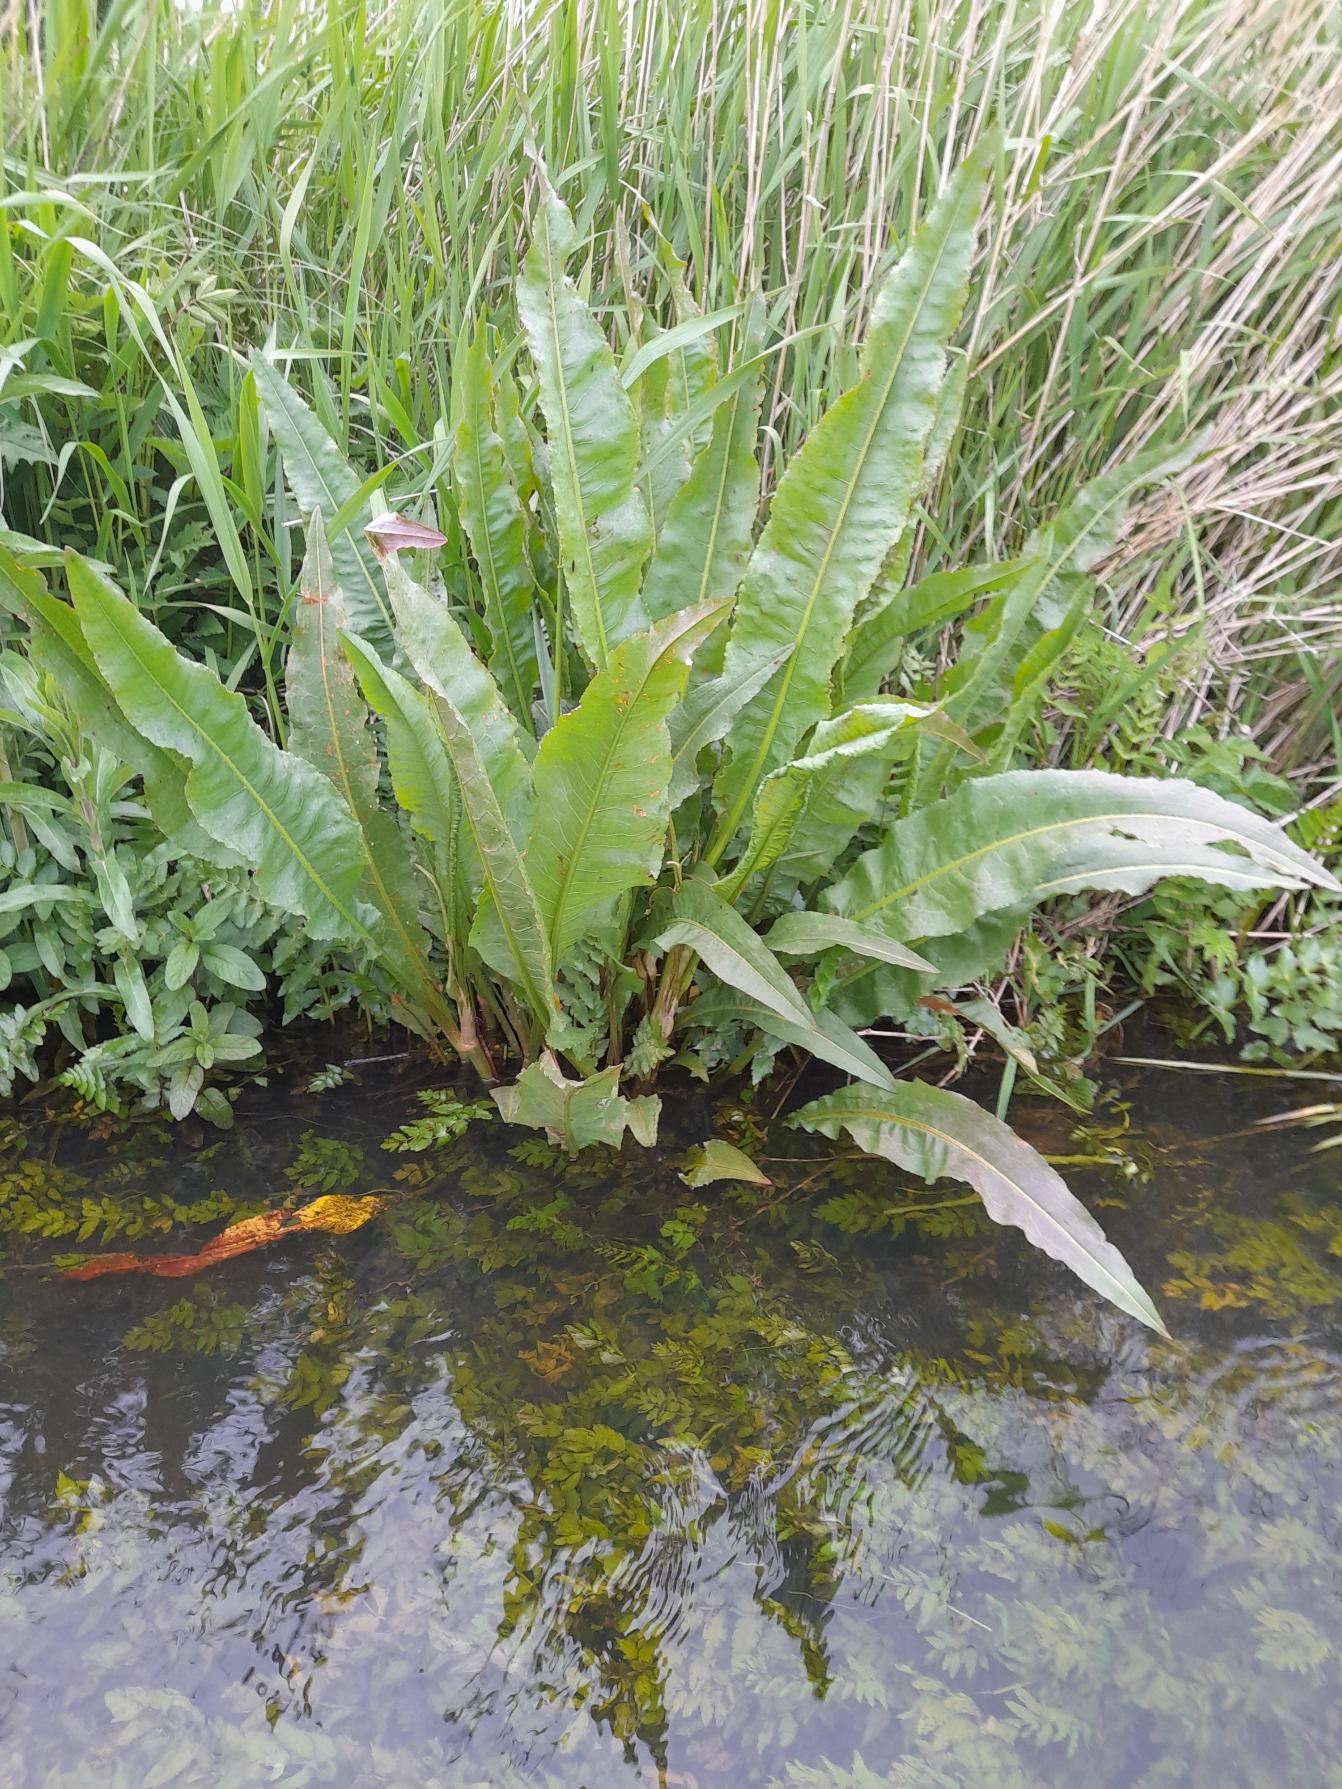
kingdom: Plantae
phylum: Tracheophyta
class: Magnoliopsida
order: Caryophyllales
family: Polygonaceae
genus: Rumex
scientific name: Rumex hydrolapathum
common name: Vand-skræppe
